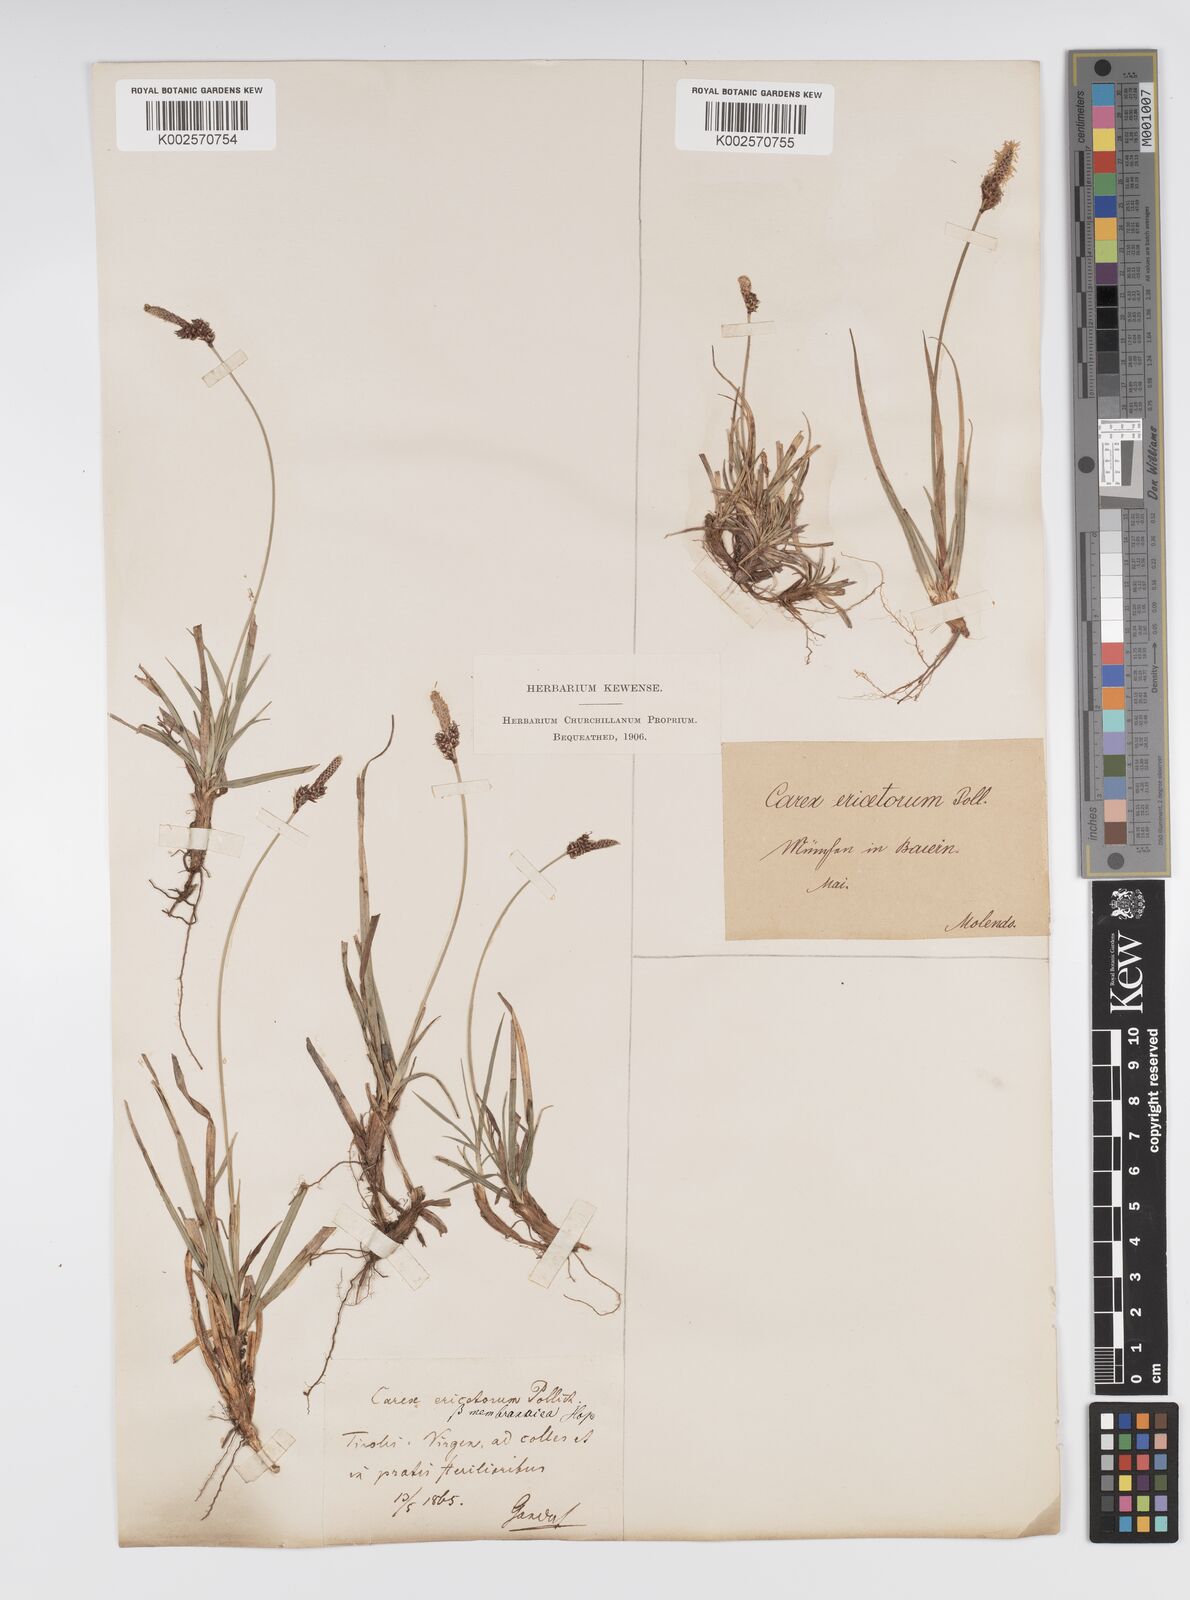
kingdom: Plantae
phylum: Tracheophyta
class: Liliopsida
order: Poales
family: Cyperaceae
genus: Carex
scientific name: Carex ericetorum
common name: Rare spring-sedge
